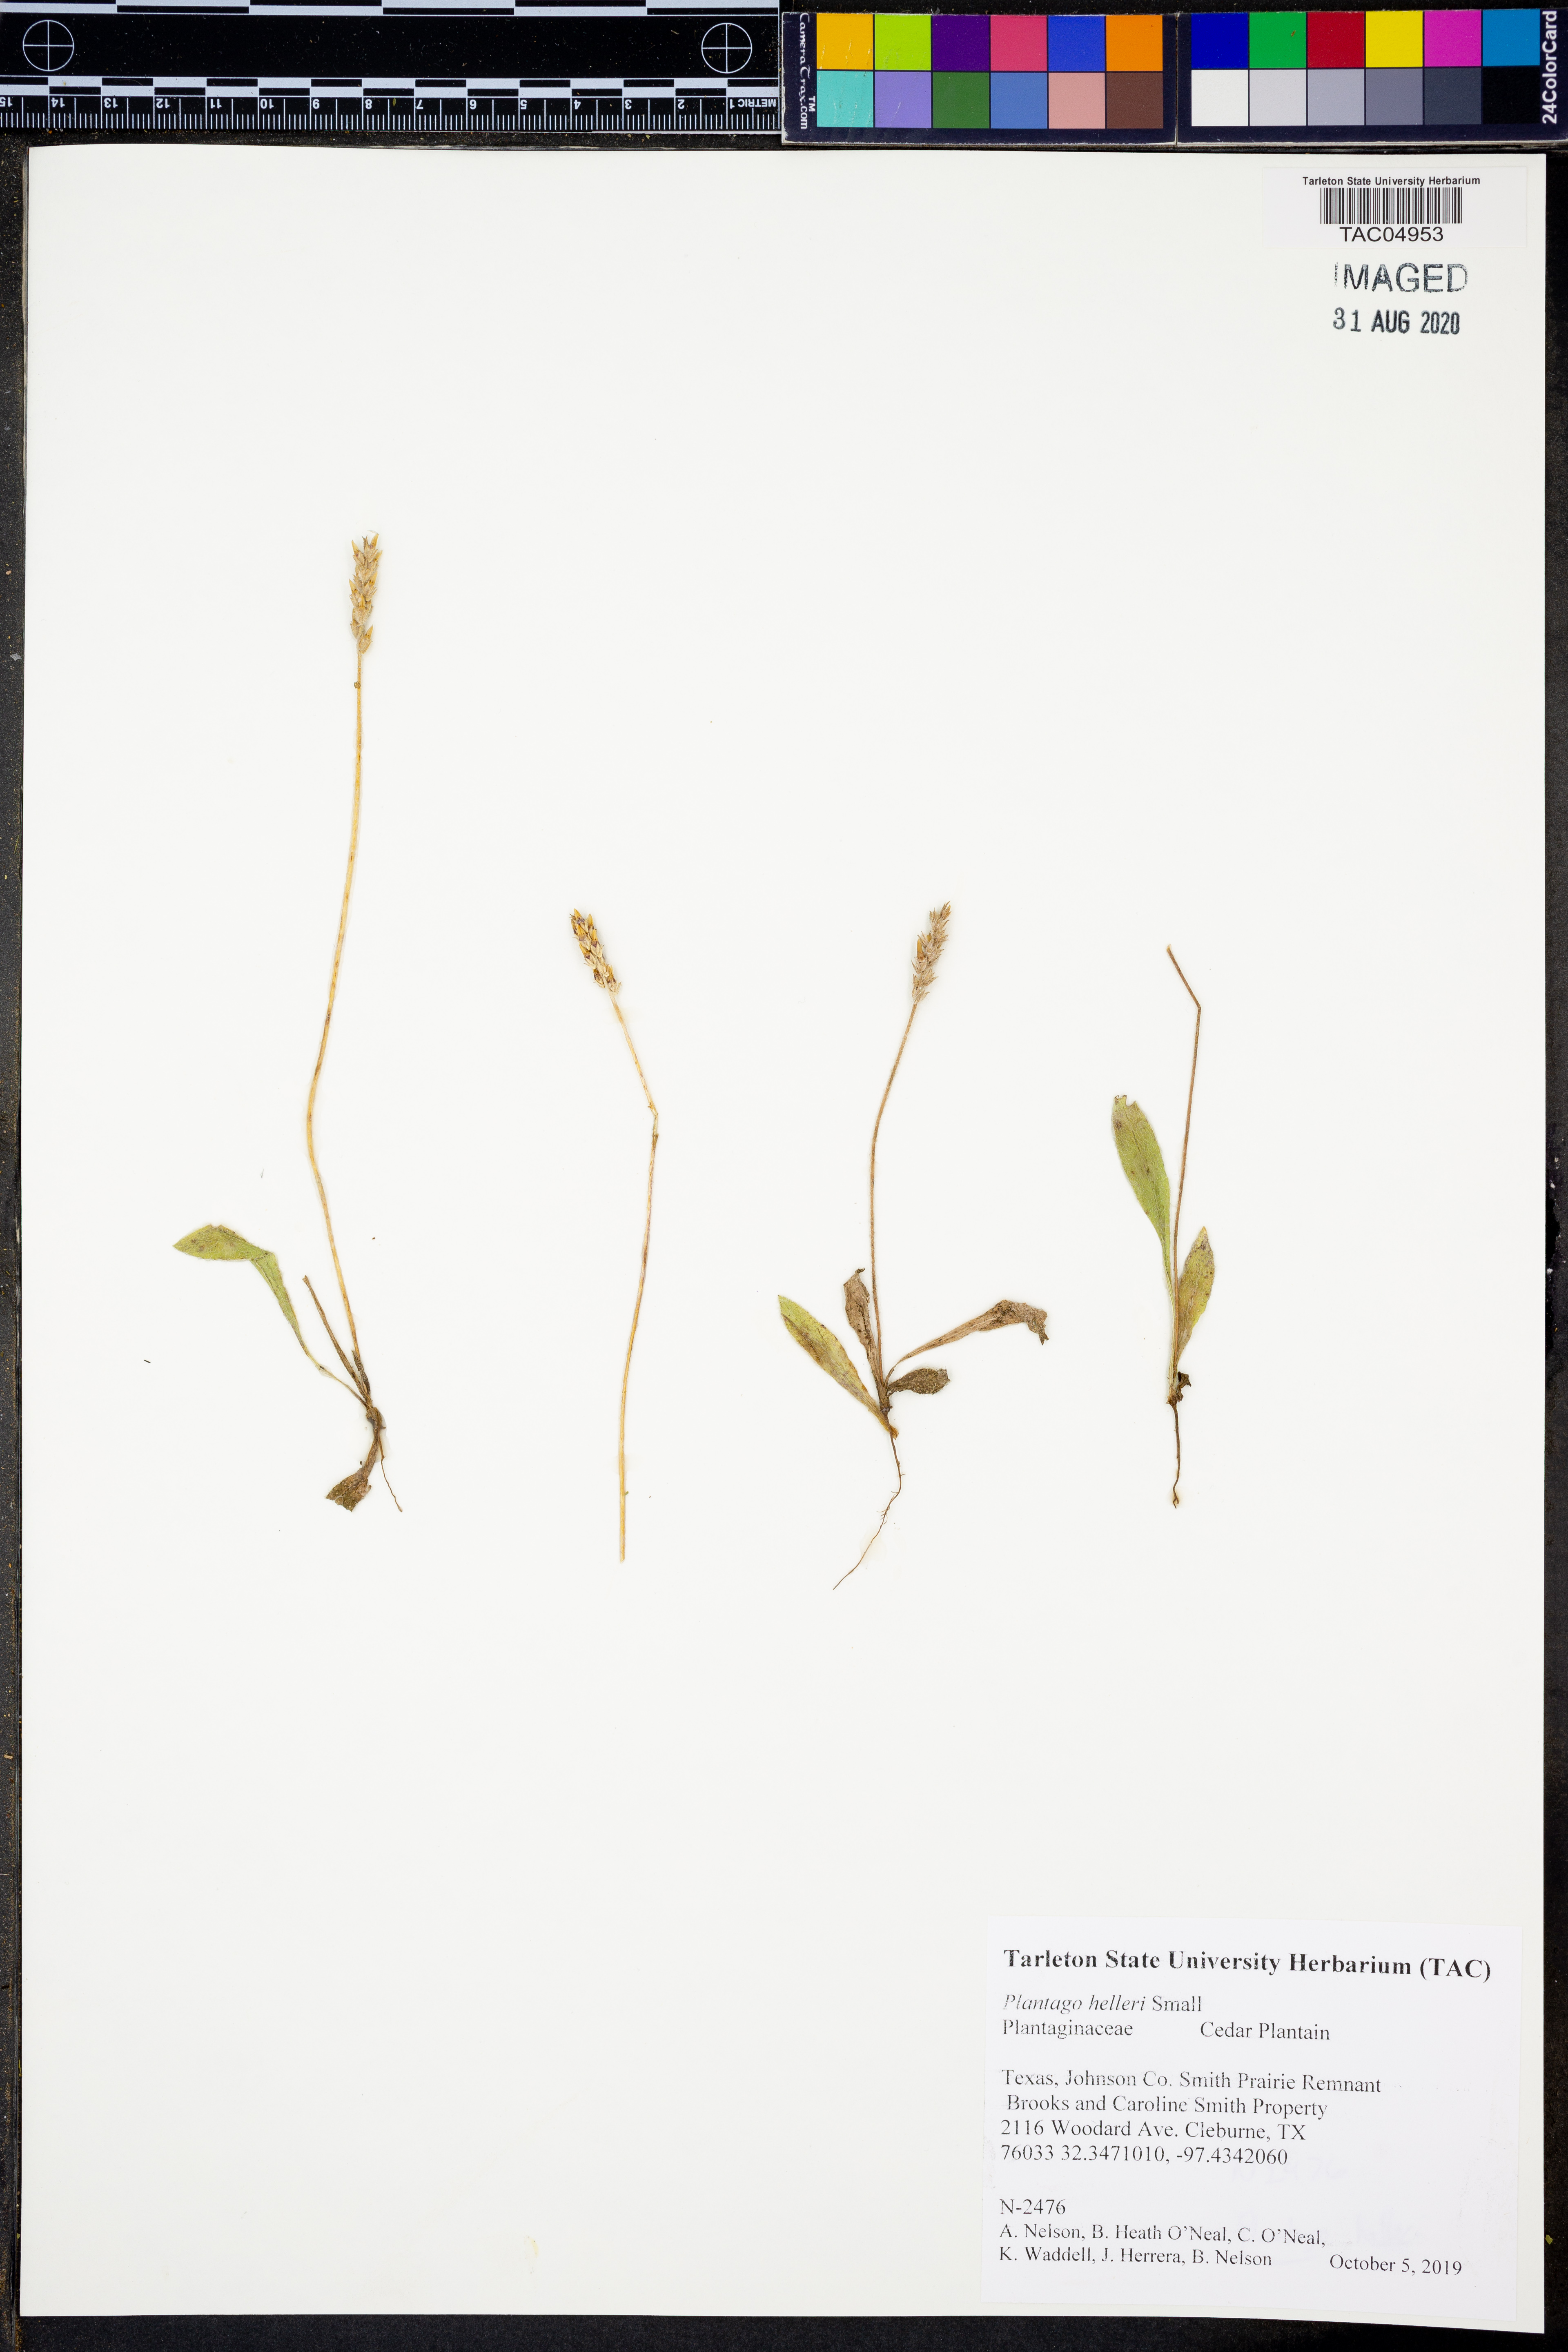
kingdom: Plantae
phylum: Tracheophyta
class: Magnoliopsida
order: Lamiales
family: Plantaginaceae
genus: Plantago
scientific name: Plantago helleri
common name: Heller's plantain
